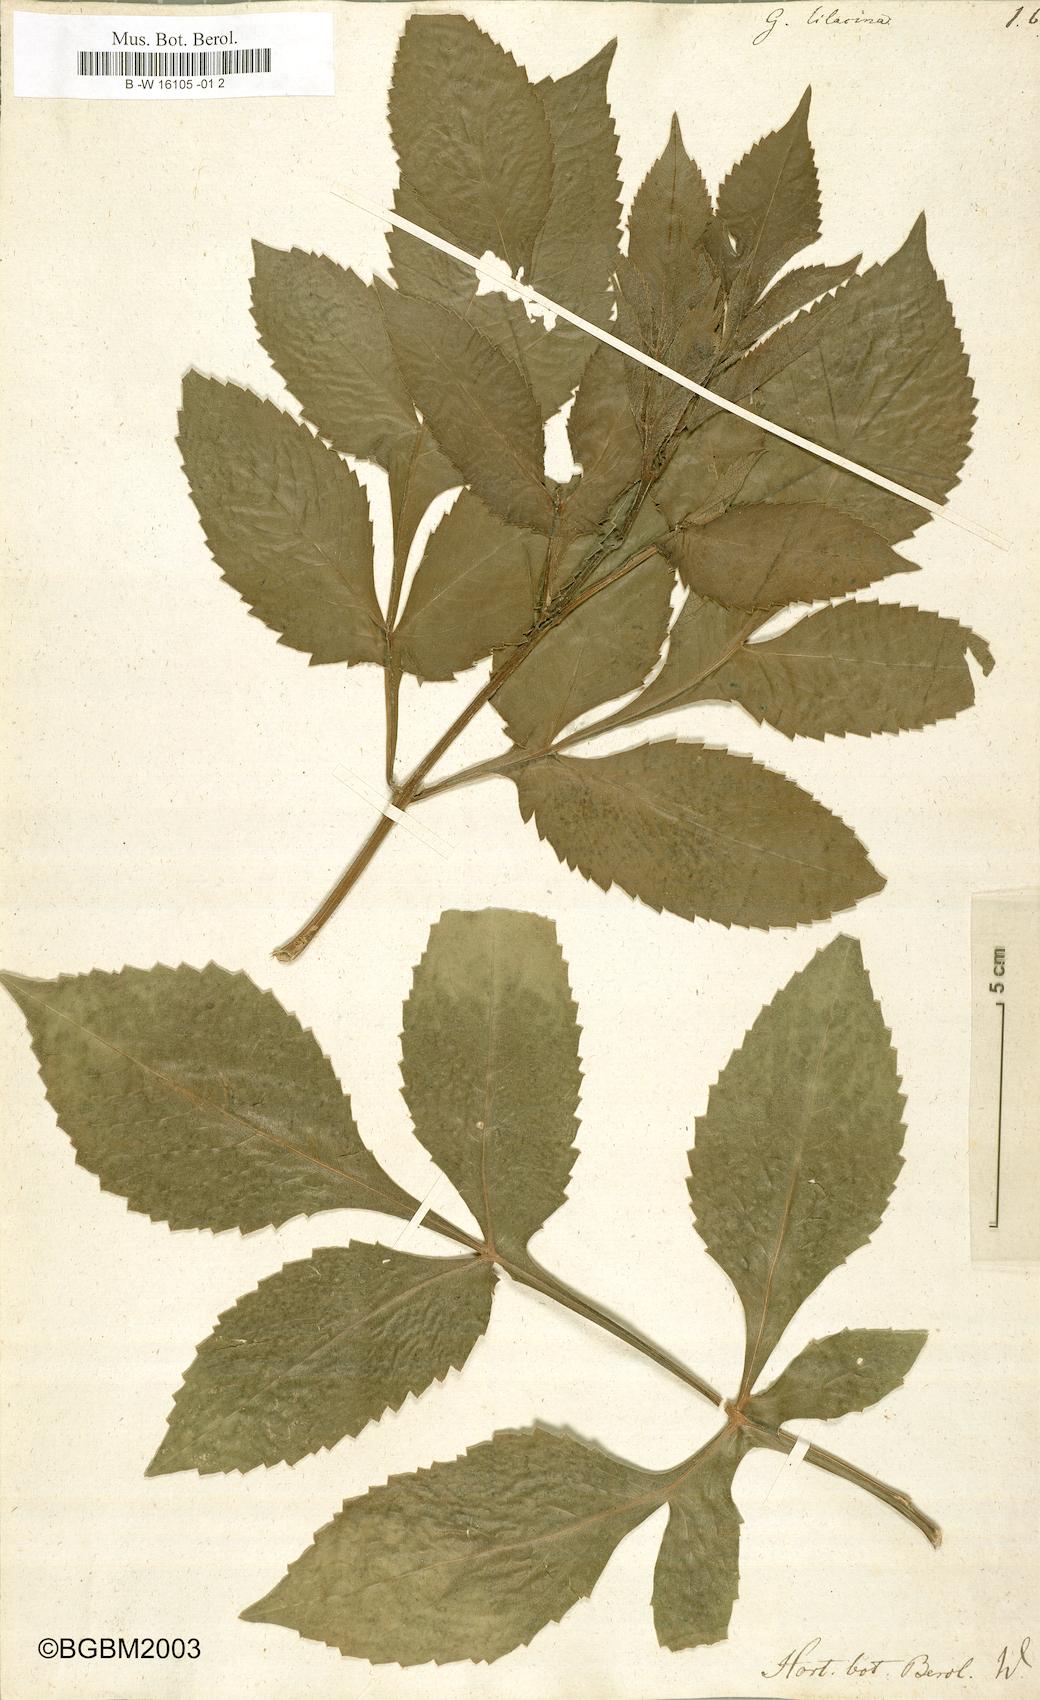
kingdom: Plantae
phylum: Tracheophyta
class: Magnoliopsida
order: Asterales
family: Asteraceae
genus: Dahlia
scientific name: Dahlia
